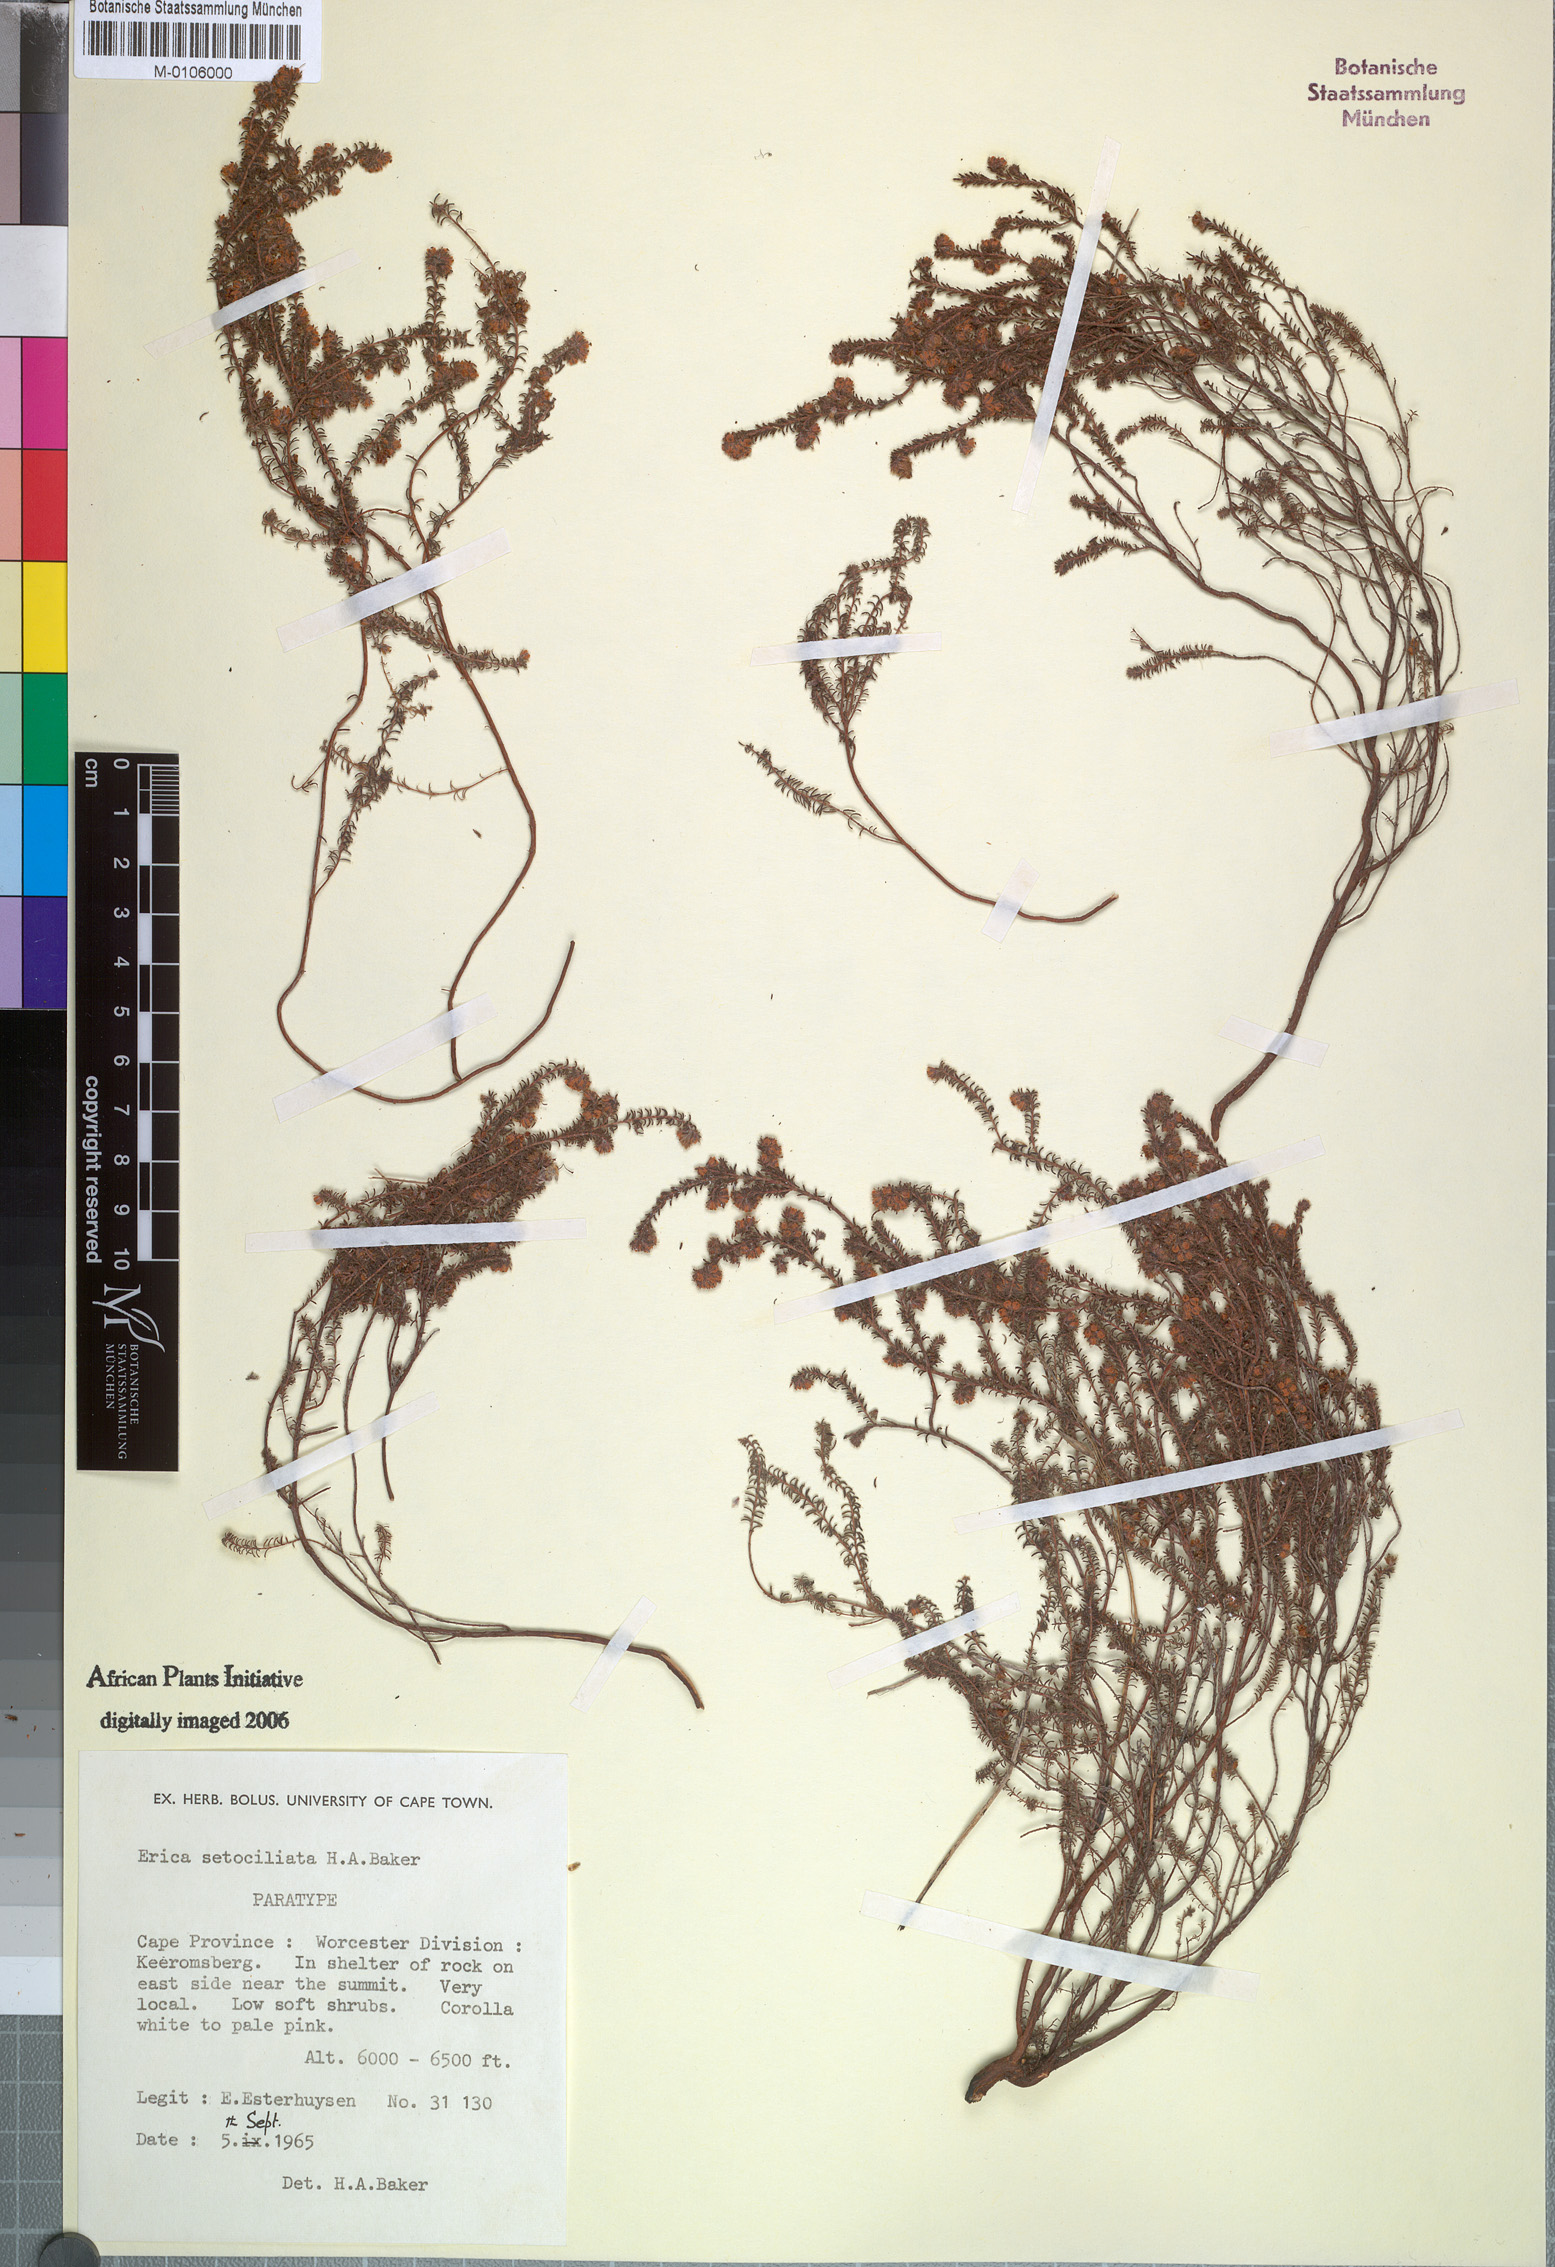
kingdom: Plantae
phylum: Tracheophyta
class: Magnoliopsida
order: Ericales
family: Ericaceae
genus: Erica
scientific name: Erica setociliata
